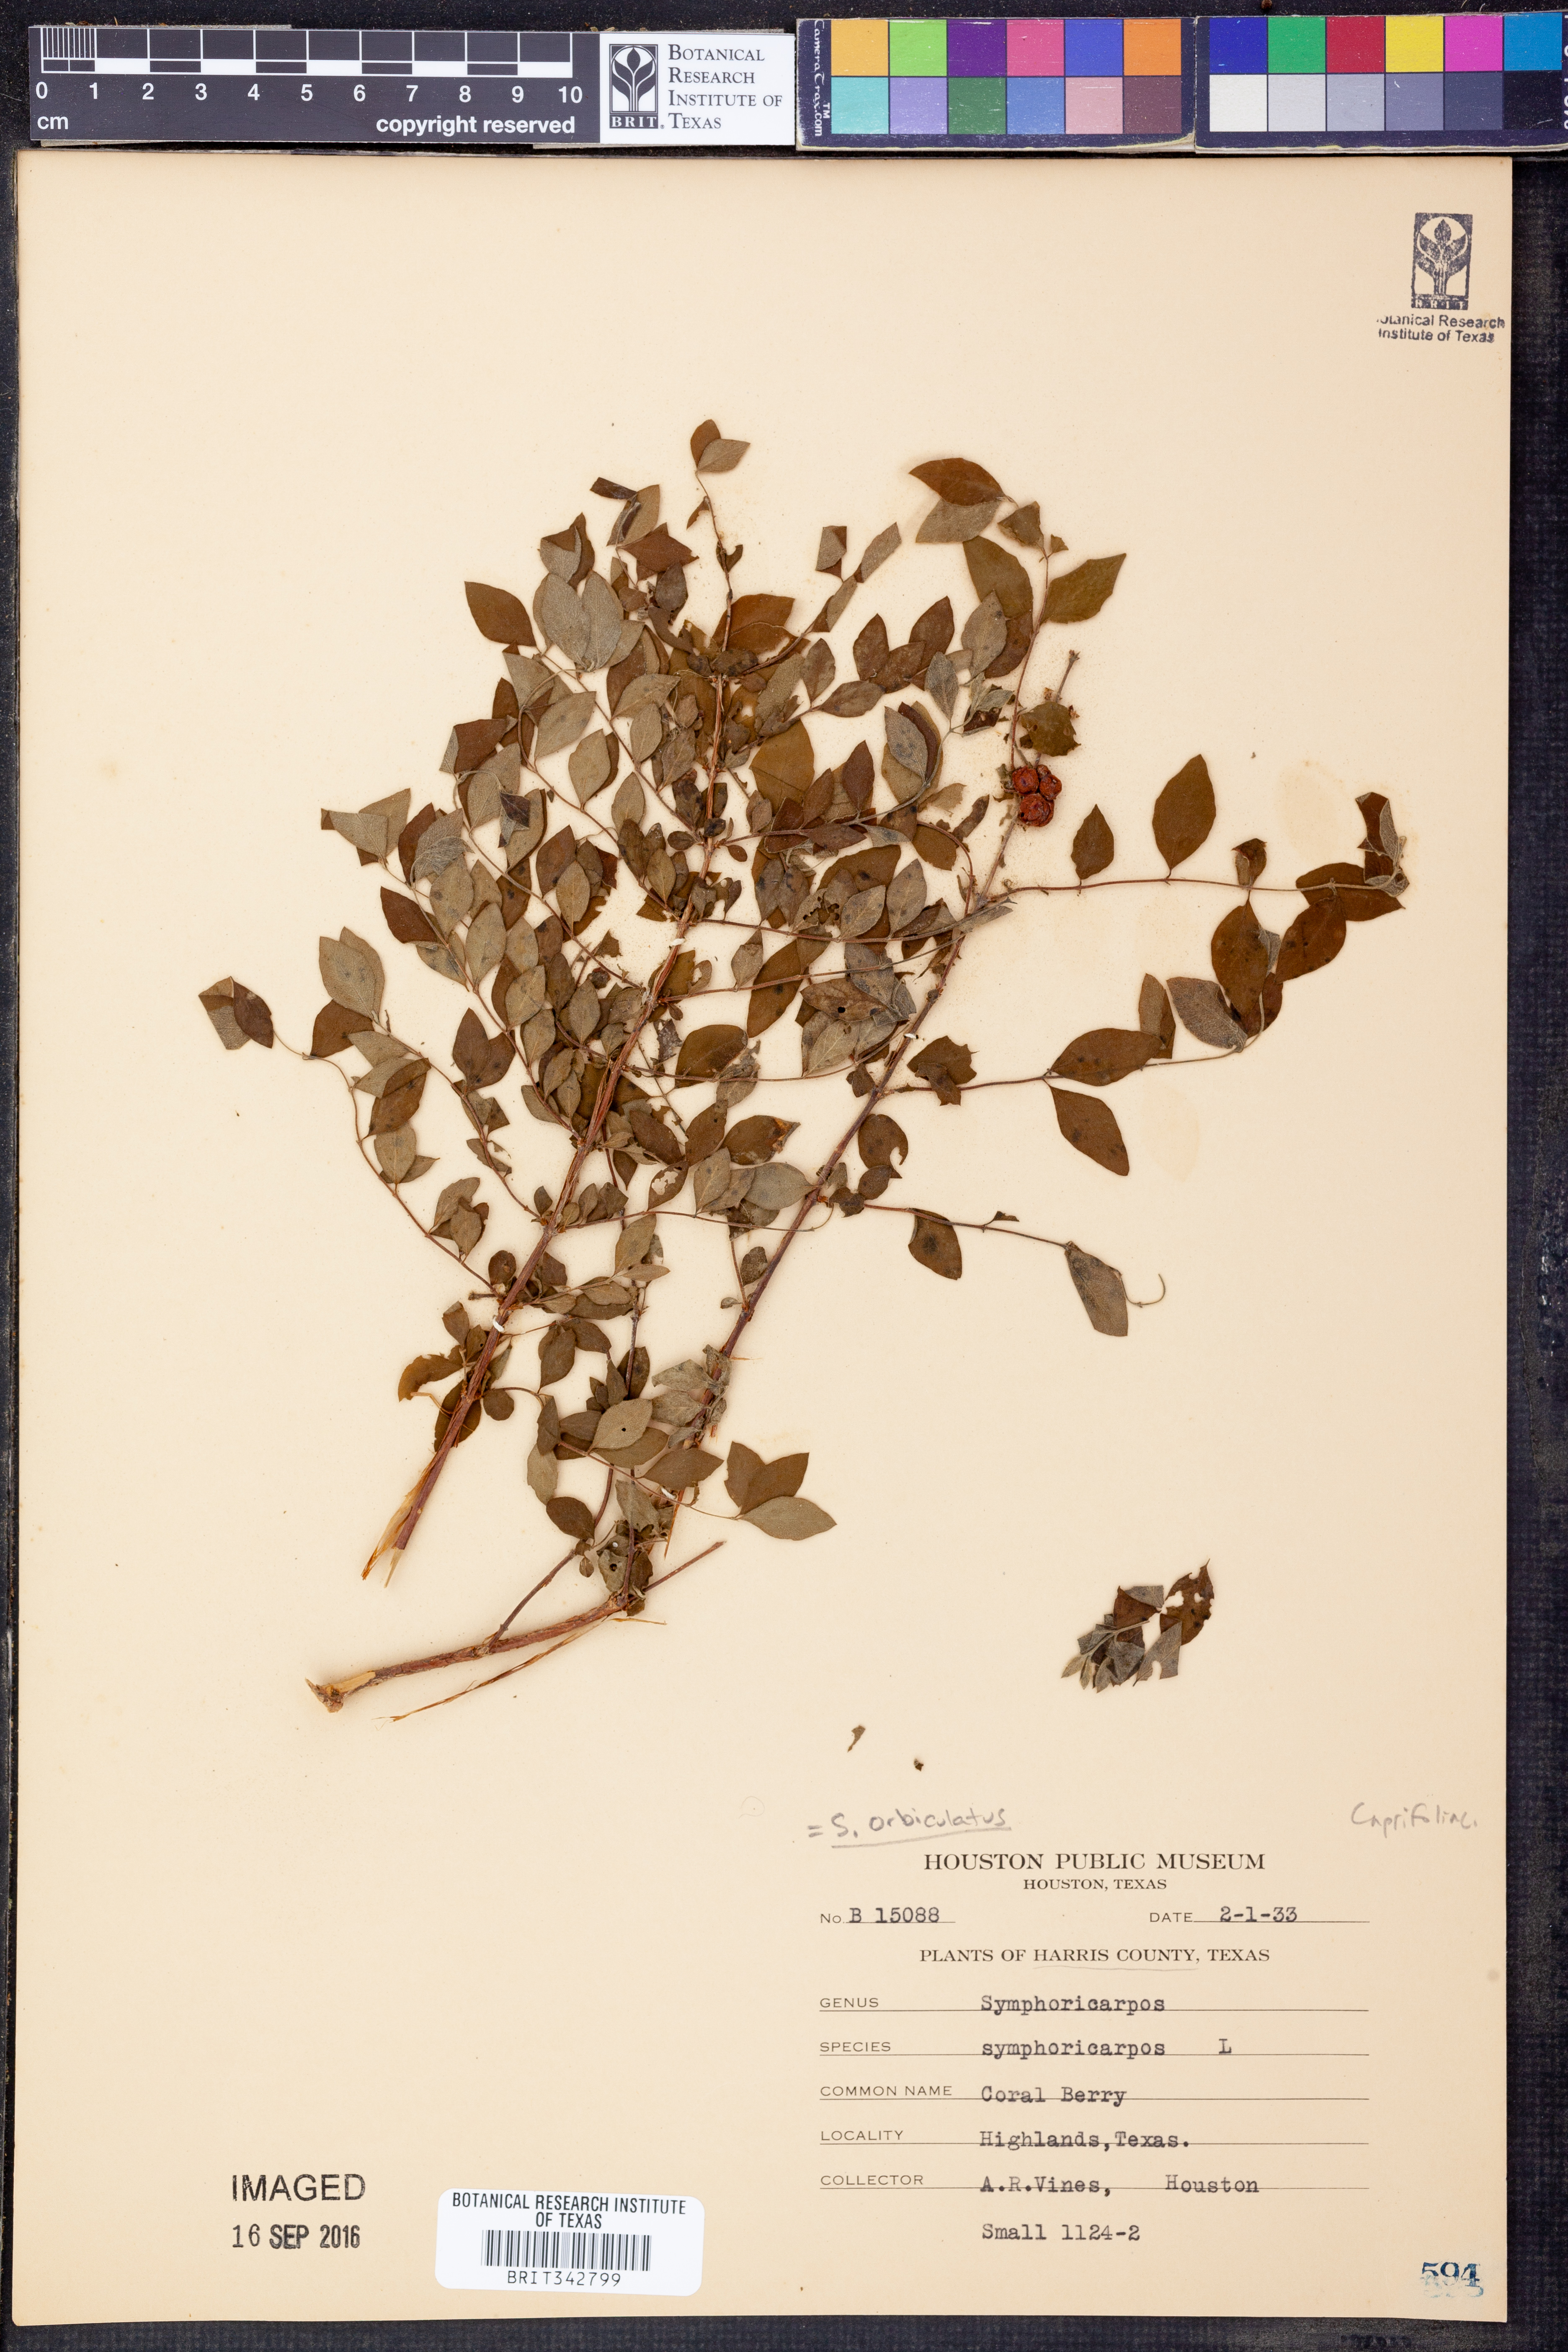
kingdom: Plantae
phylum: Tracheophyta
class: Magnoliopsida
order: Dipsacales
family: Caprifoliaceae
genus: Symphoricarpos
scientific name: Symphoricarpos orbiculatus
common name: Coralberry
